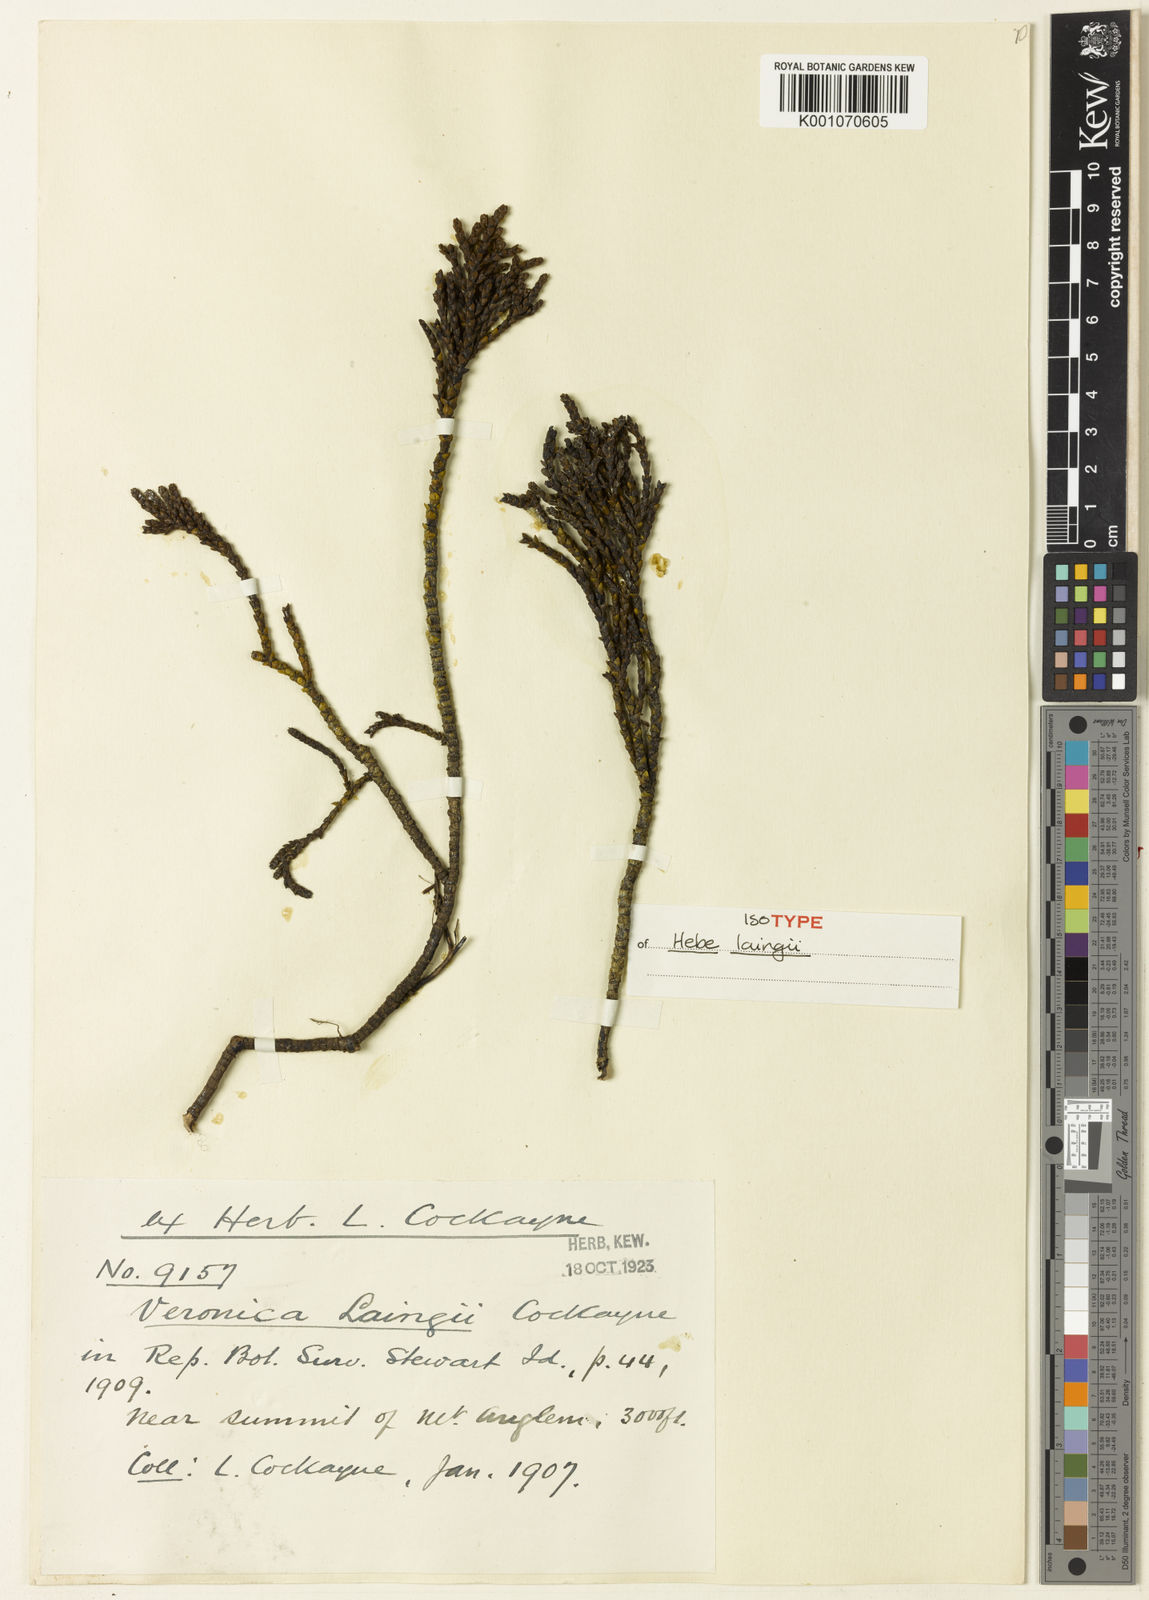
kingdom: Plantae
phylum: Tracheophyta
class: Magnoliopsida
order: Lamiales
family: Plantaginaceae
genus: Veronica
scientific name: Veronica hectorii
